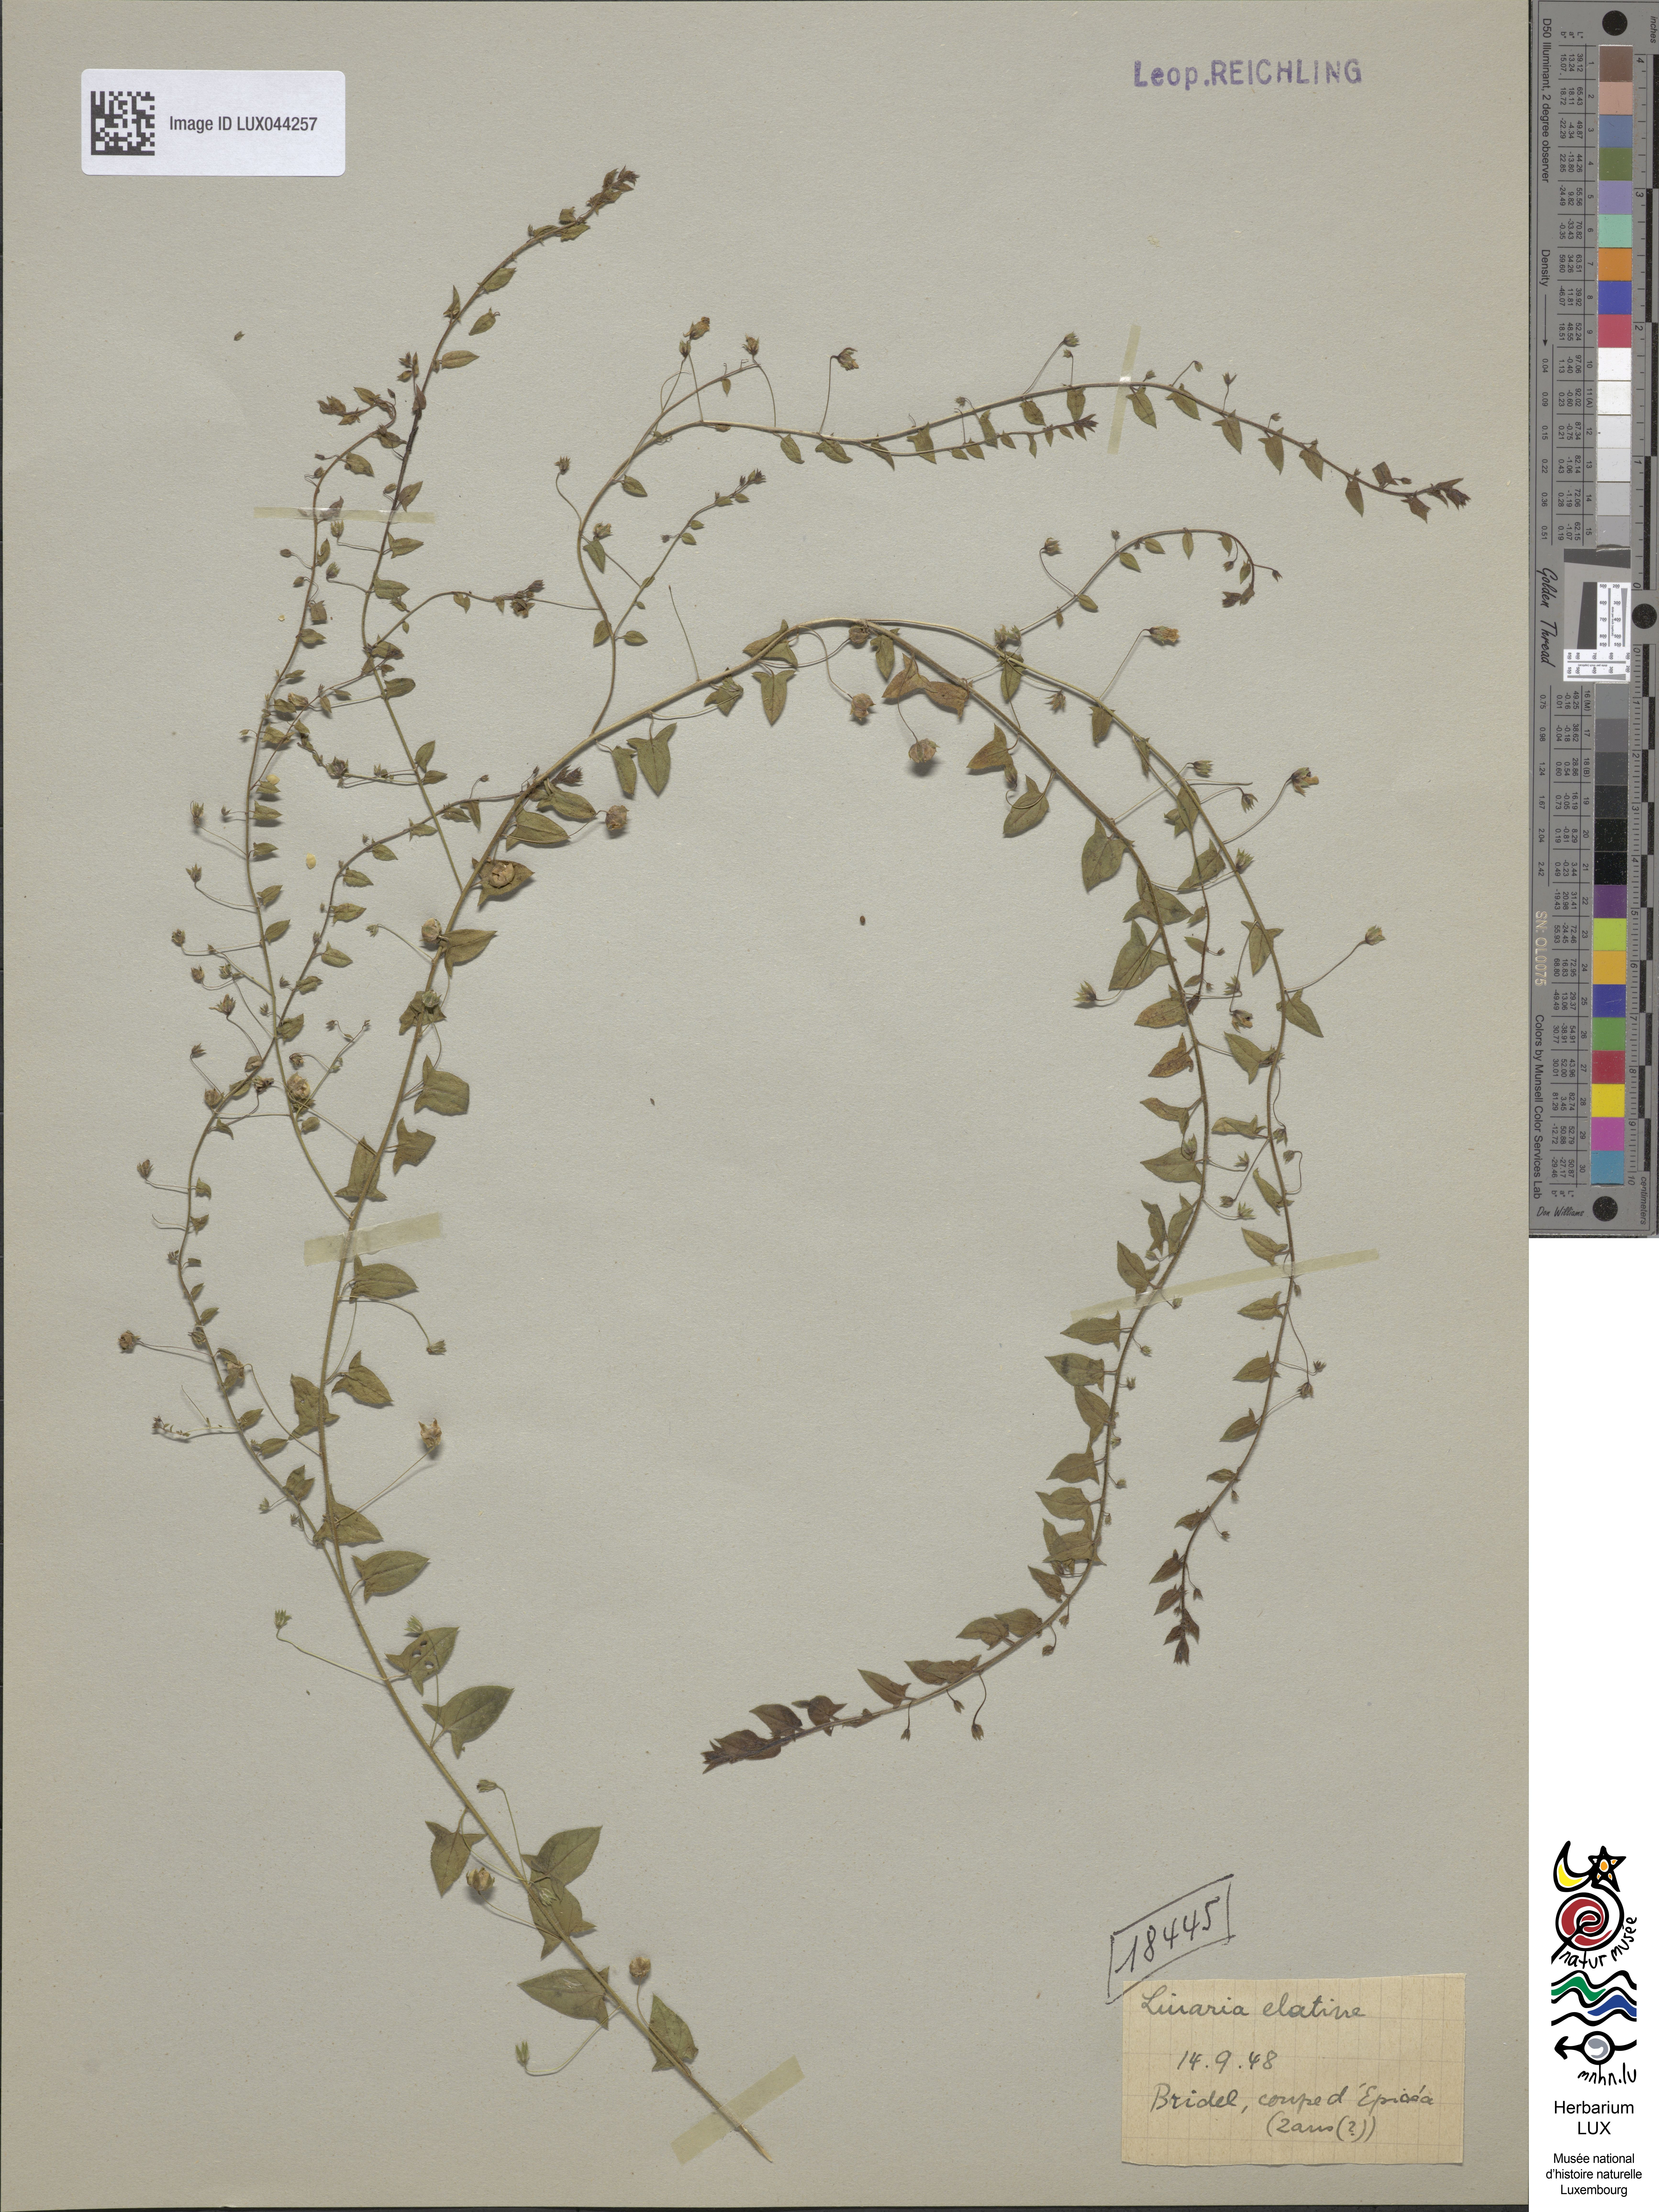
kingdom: Plantae
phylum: Tracheophyta
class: Magnoliopsida
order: Lamiales
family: Plantaginaceae
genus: Kickxia
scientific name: Kickxia elatine
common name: Sharp-leaved fluellen
